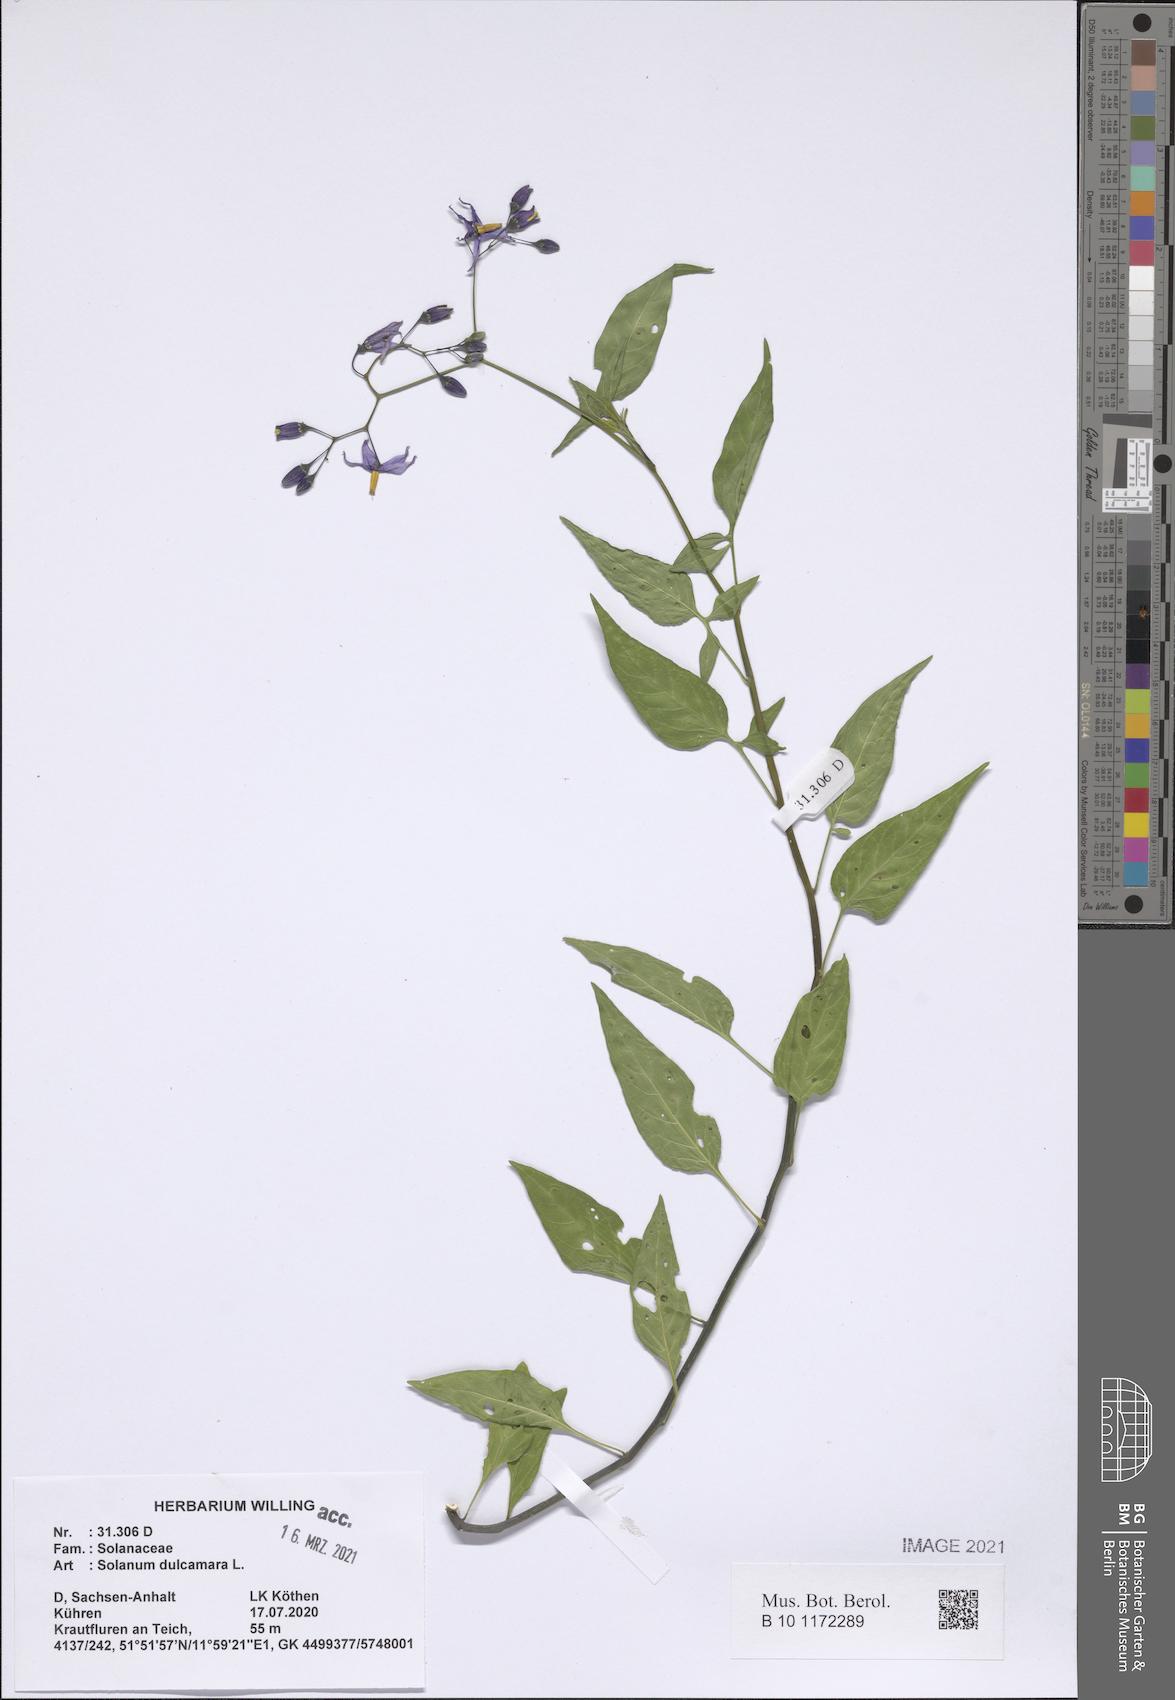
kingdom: Plantae
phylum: Tracheophyta
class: Magnoliopsida
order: Solanales
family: Solanaceae
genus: Solanum
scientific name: Solanum dulcamara
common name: Climbing nightshade
